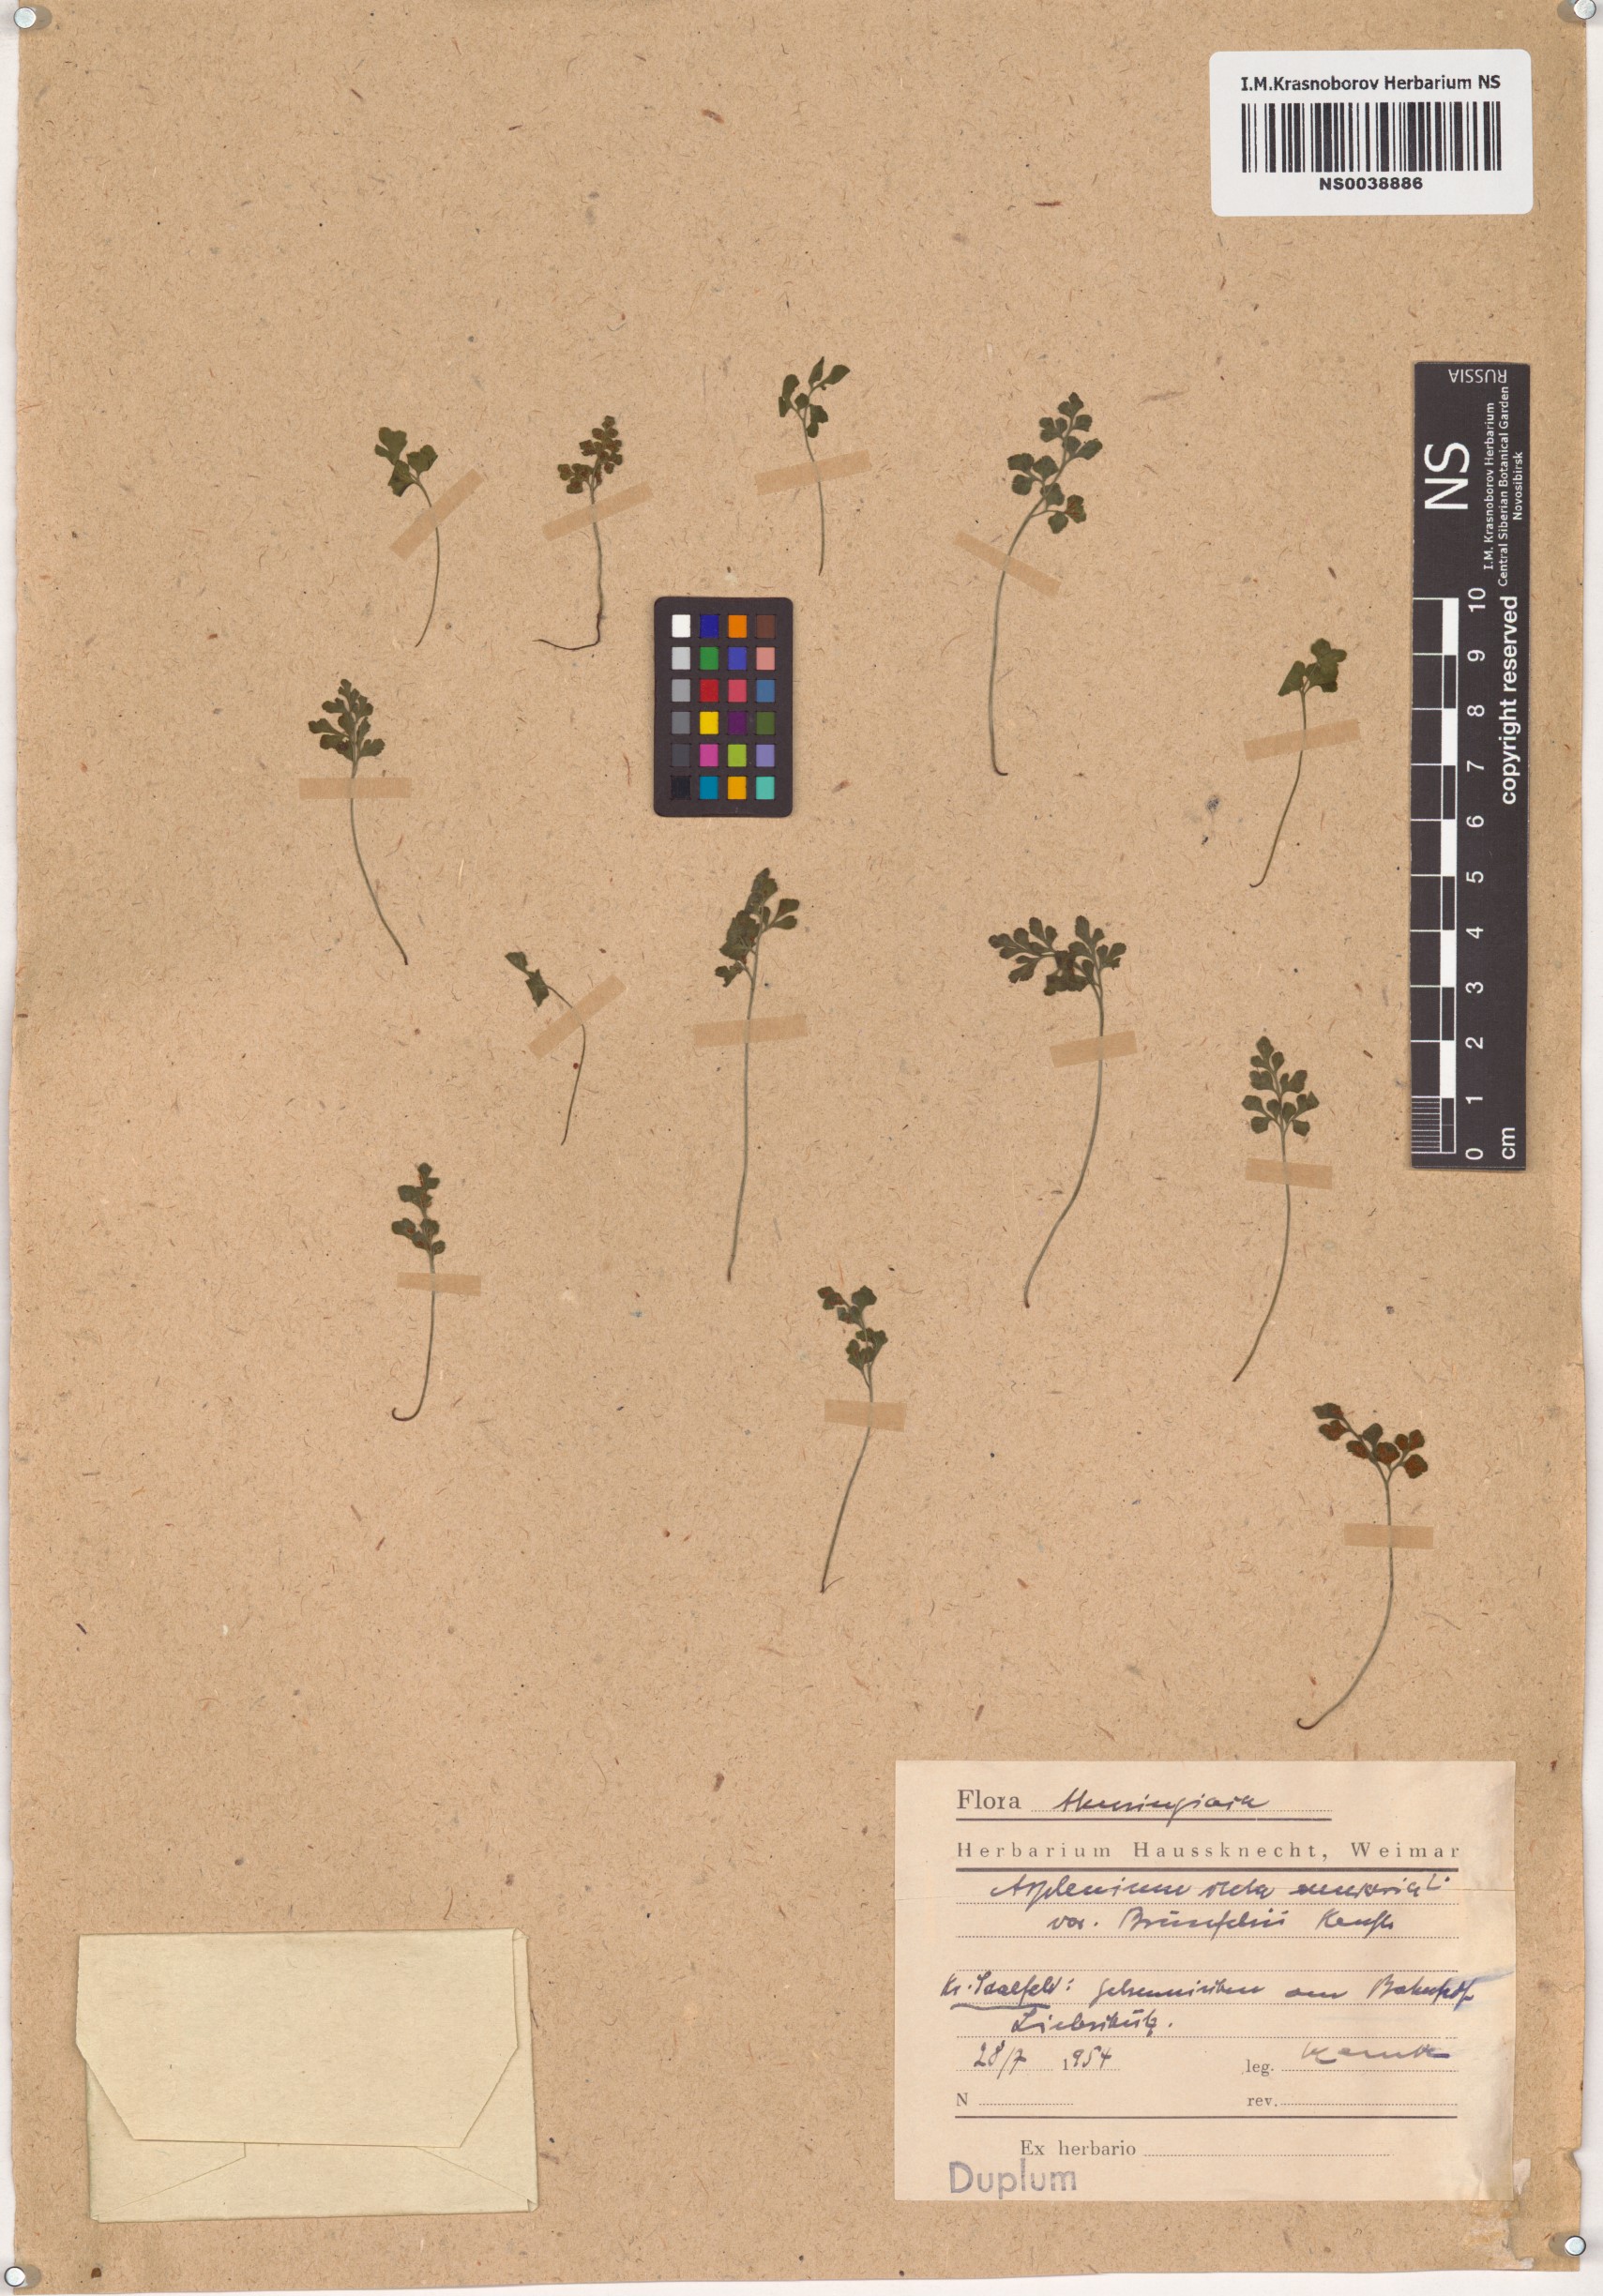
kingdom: Plantae
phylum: Tracheophyta
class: Polypodiopsida
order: Polypodiales
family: Aspleniaceae
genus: Asplenium
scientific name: Asplenium ruta-muraria
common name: Wall-rue
